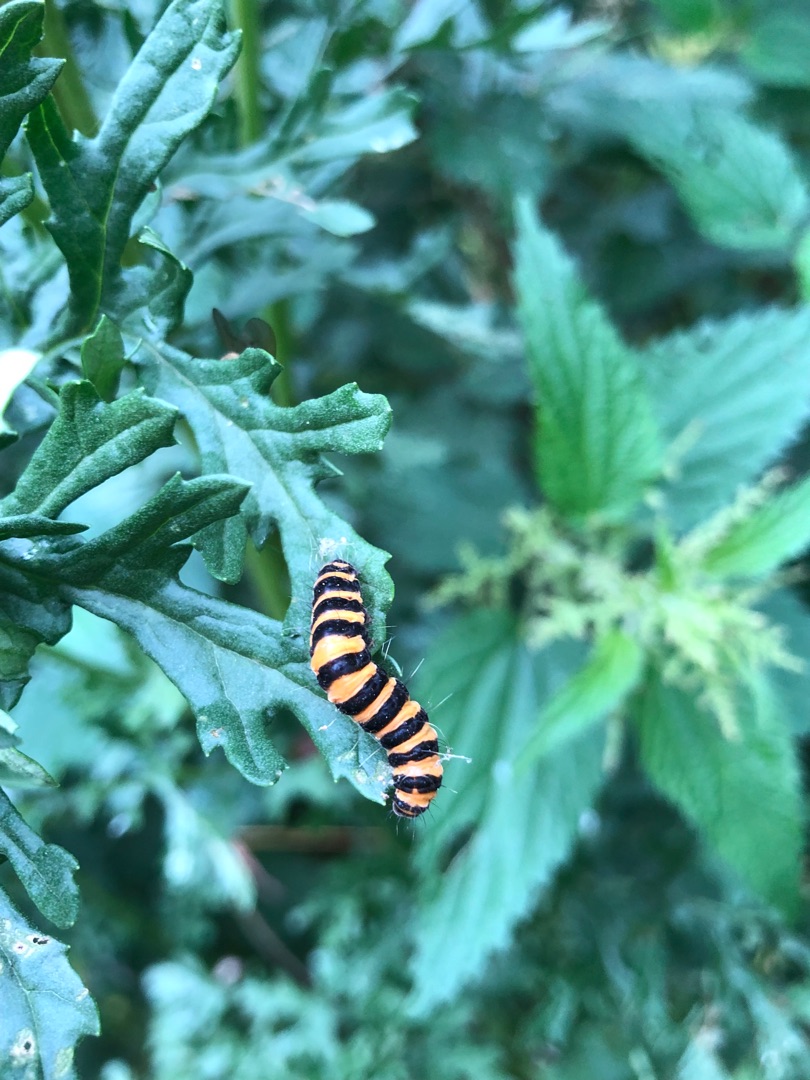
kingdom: Animalia
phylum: Arthropoda
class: Insecta
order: Lepidoptera
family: Erebidae
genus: Tyria
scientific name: Tyria jacobaeae
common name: Blodplet
